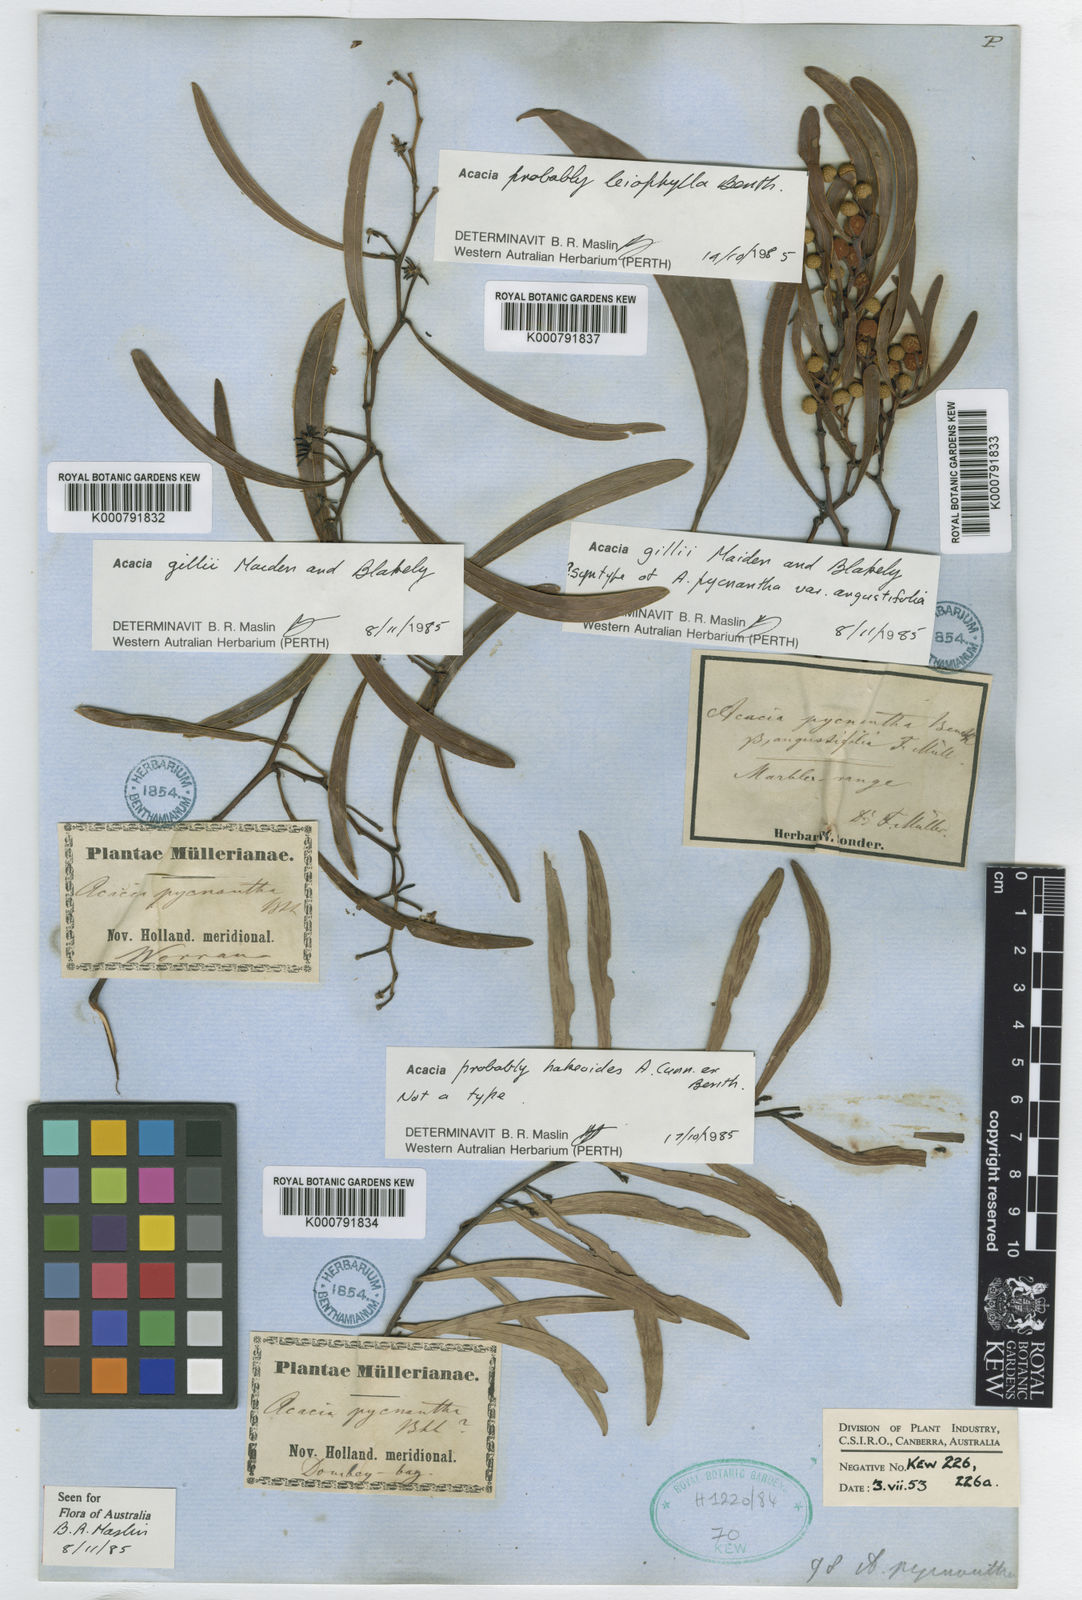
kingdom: Plantae
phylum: Tracheophyta
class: Magnoliopsida
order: Fabales
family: Fabaceae
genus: Acacia
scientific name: Acacia gillii
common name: Gill's wattle
